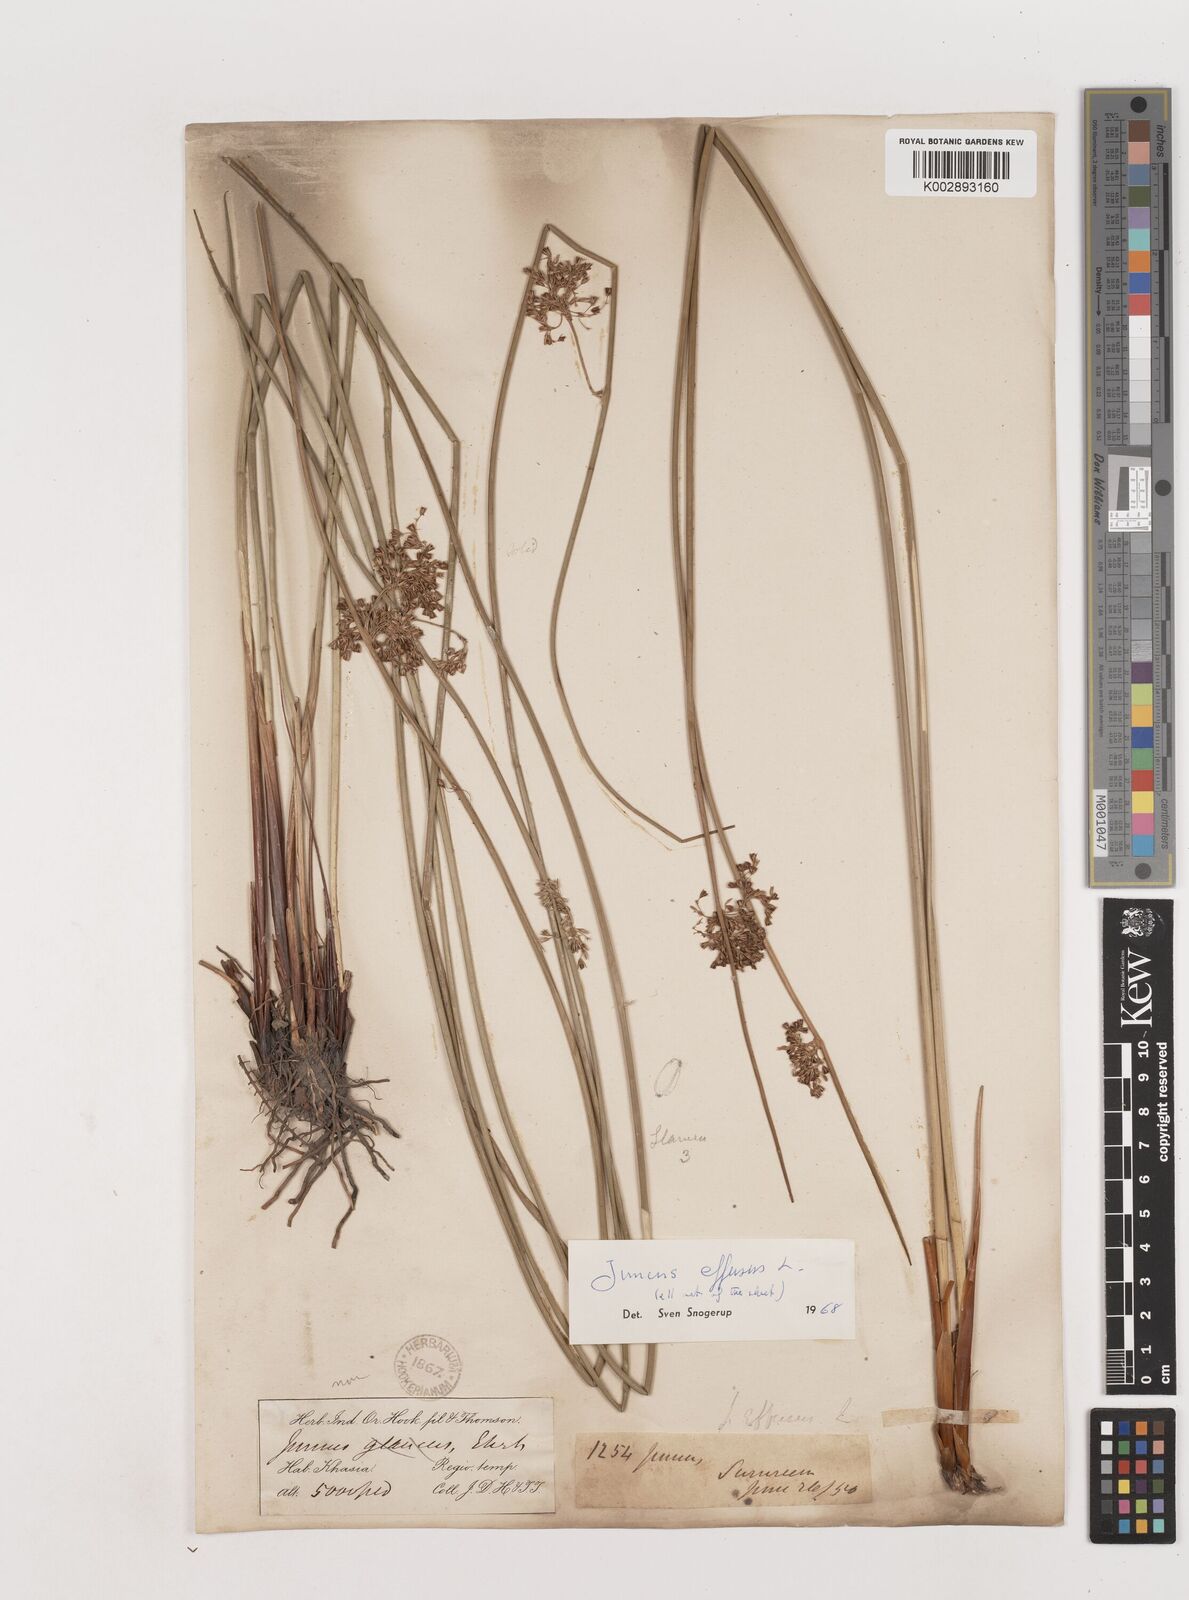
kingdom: Plantae
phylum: Tracheophyta
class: Liliopsida
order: Poales
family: Juncaceae
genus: Juncus
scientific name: Juncus effusus
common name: Soft rush
